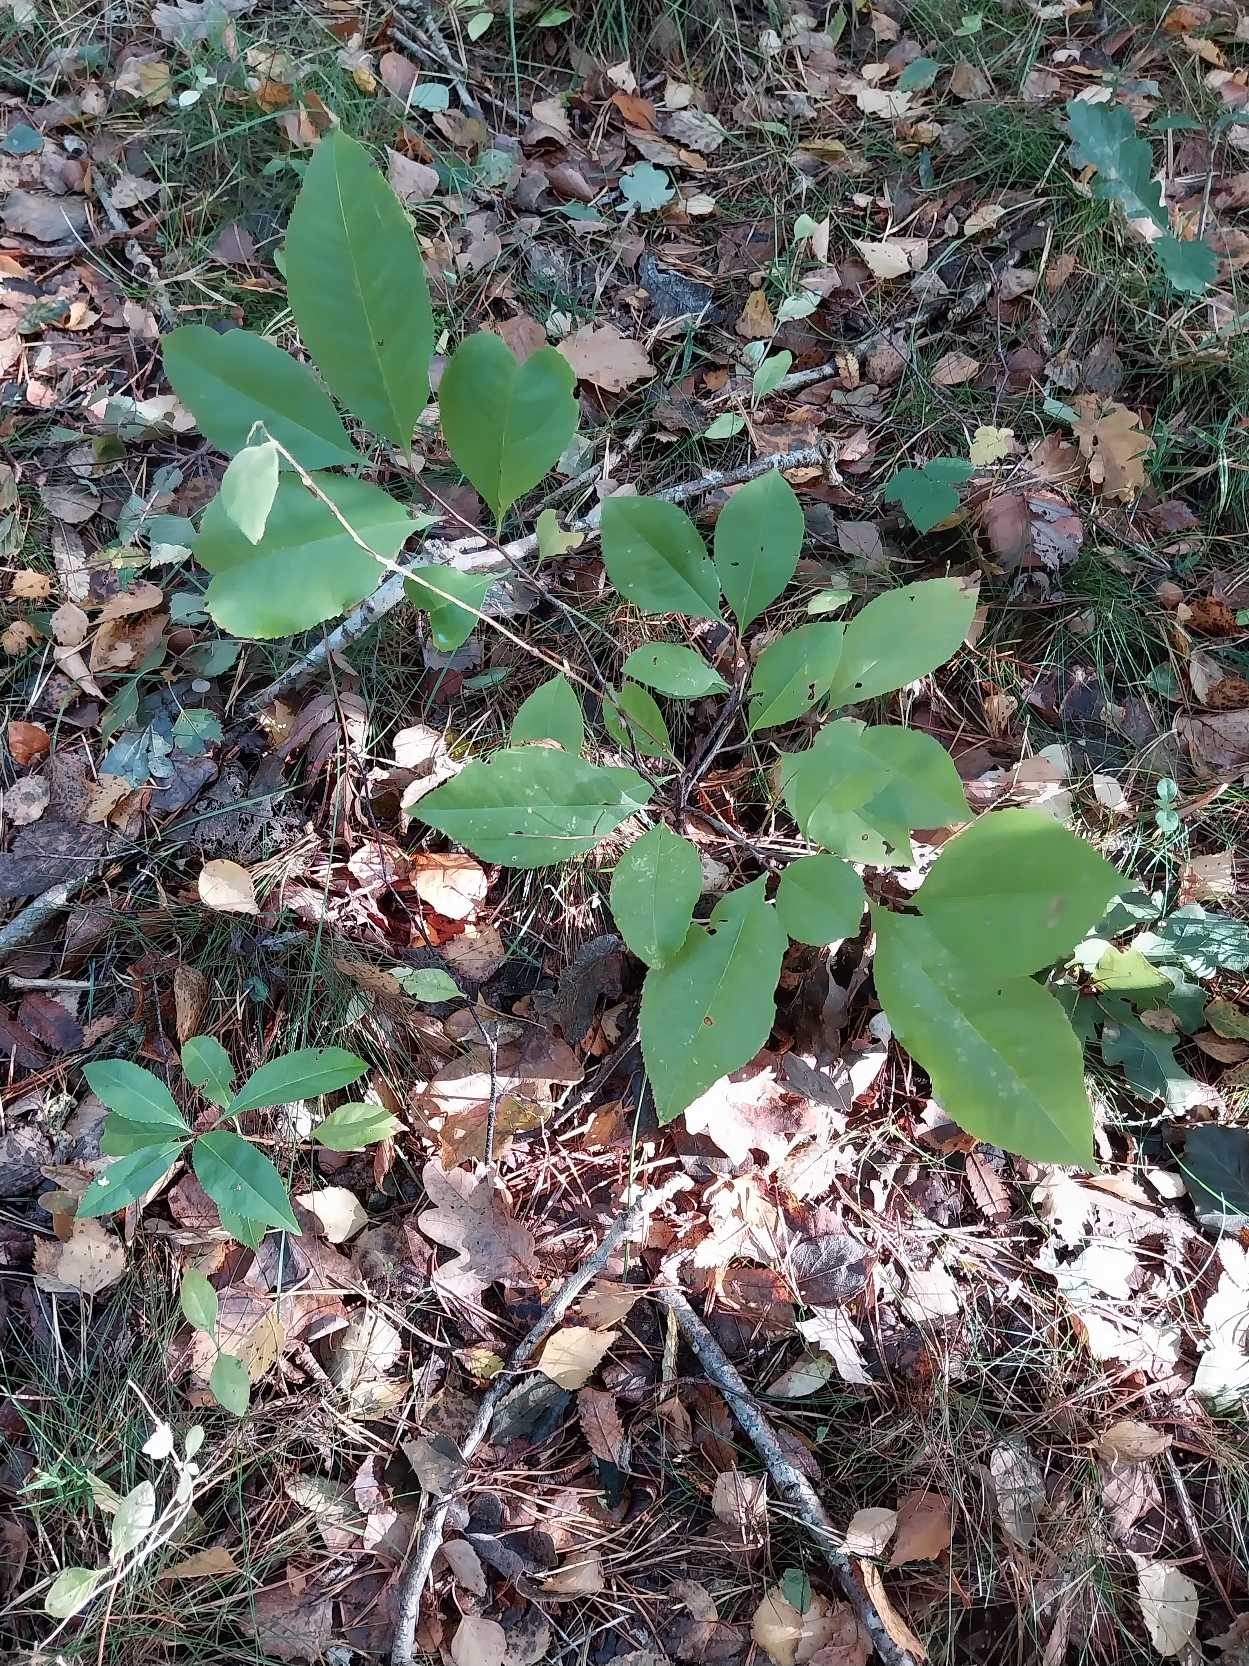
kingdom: Plantae
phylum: Tracheophyta
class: Magnoliopsida
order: Rosales
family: Rosaceae
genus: Prunus
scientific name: Prunus serotina
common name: Glansbladet hæg
